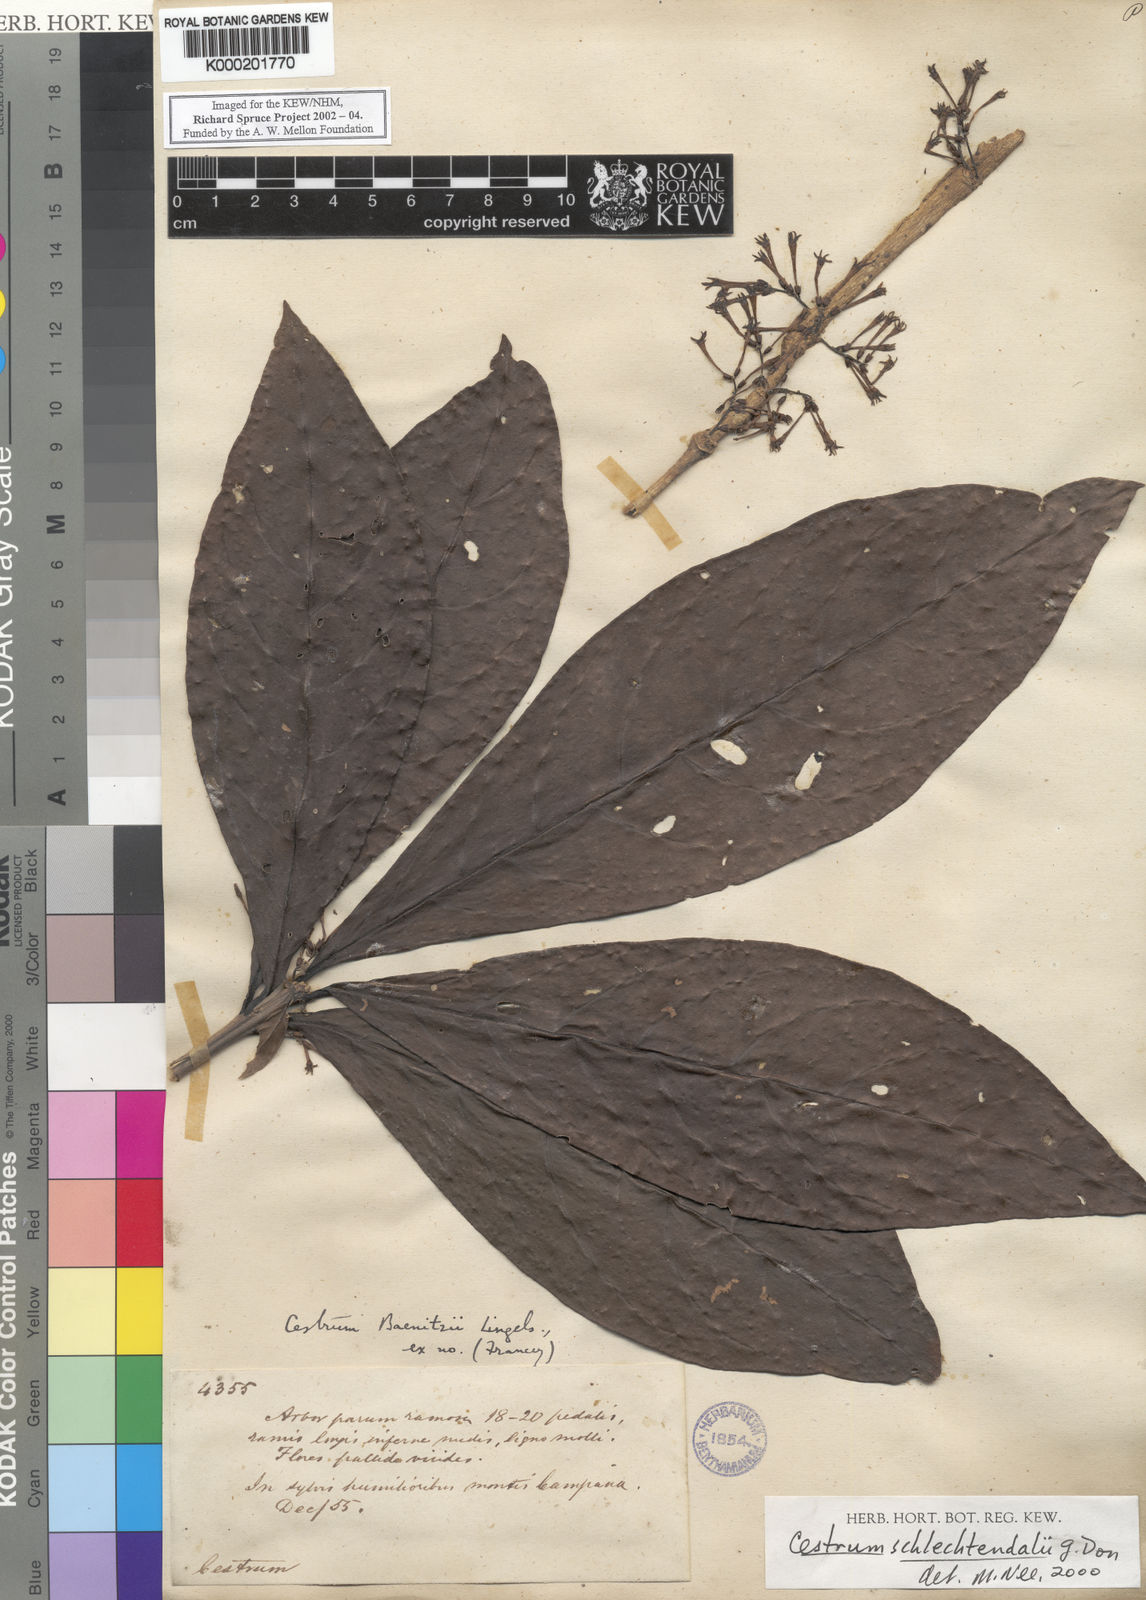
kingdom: Plantae
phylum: Tracheophyta
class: Magnoliopsida
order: Solanales
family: Solanaceae
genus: Cestrum
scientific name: Cestrum schlechtendalii
